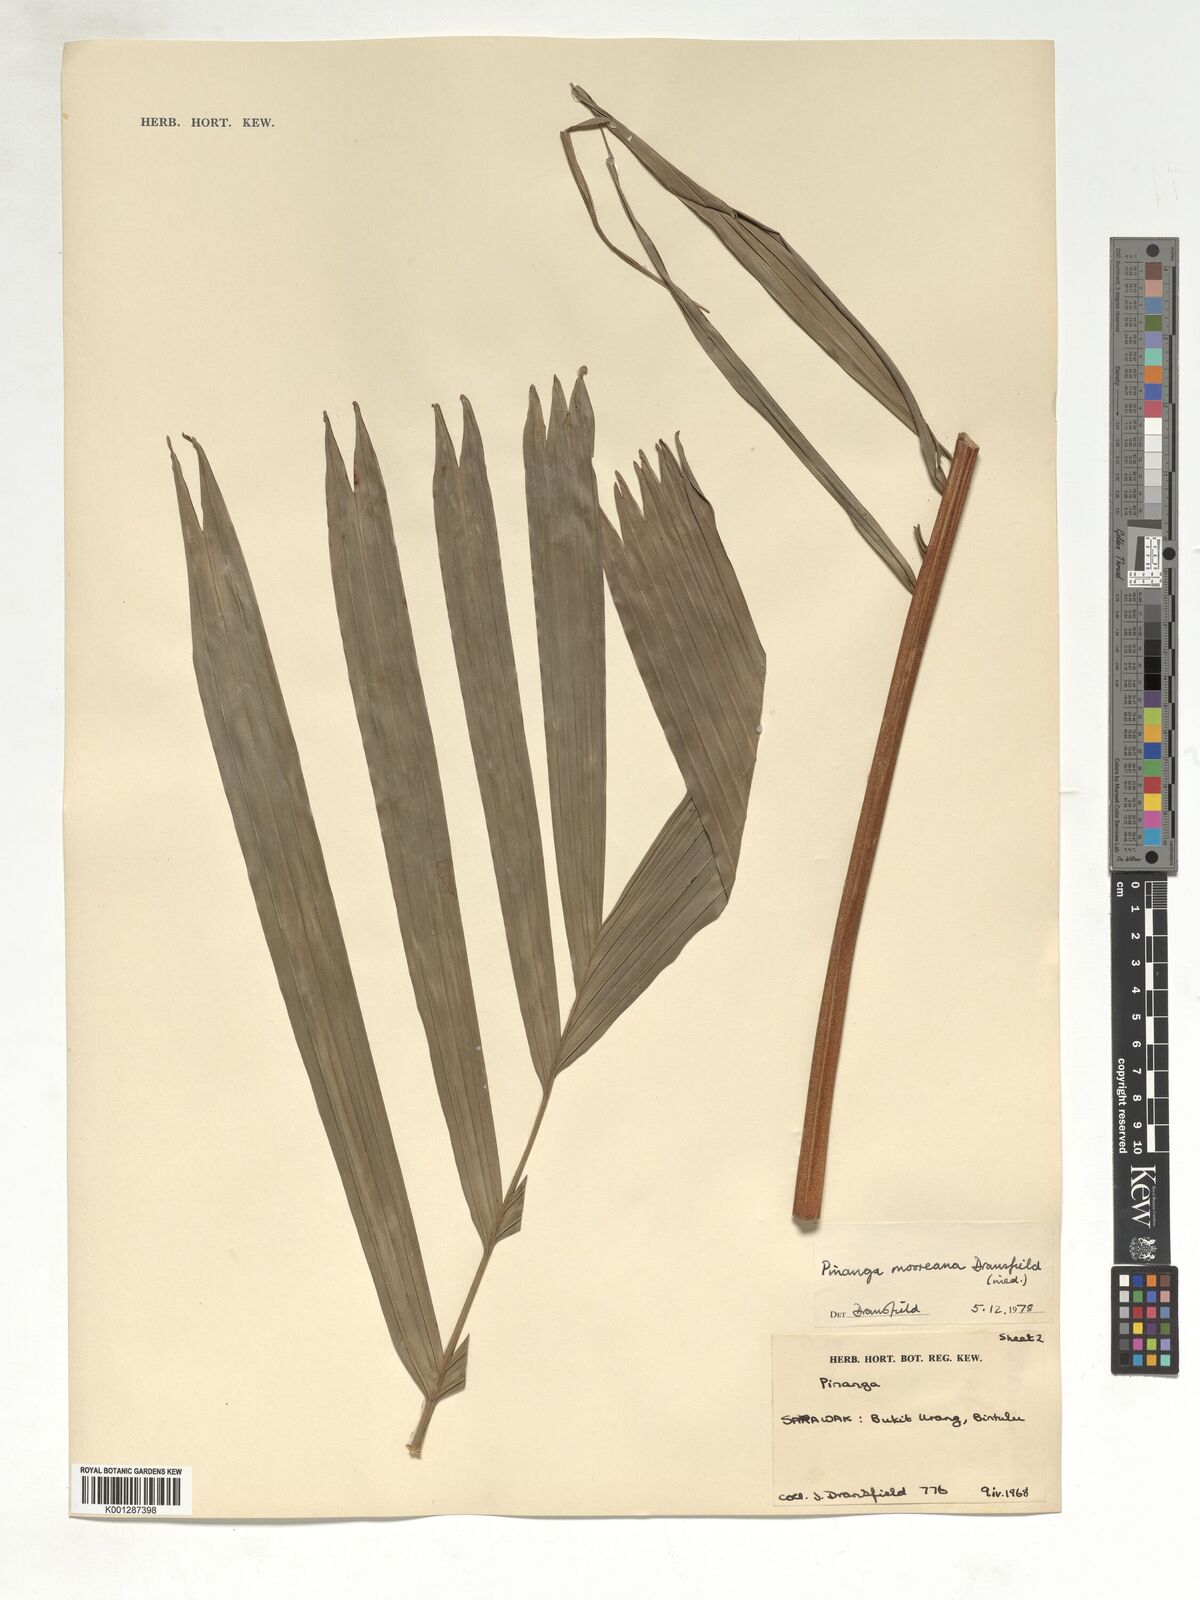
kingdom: Plantae
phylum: Tracheophyta
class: Liliopsida
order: Arecales
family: Arecaceae
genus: Pinanga
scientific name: Pinanga mooreana
